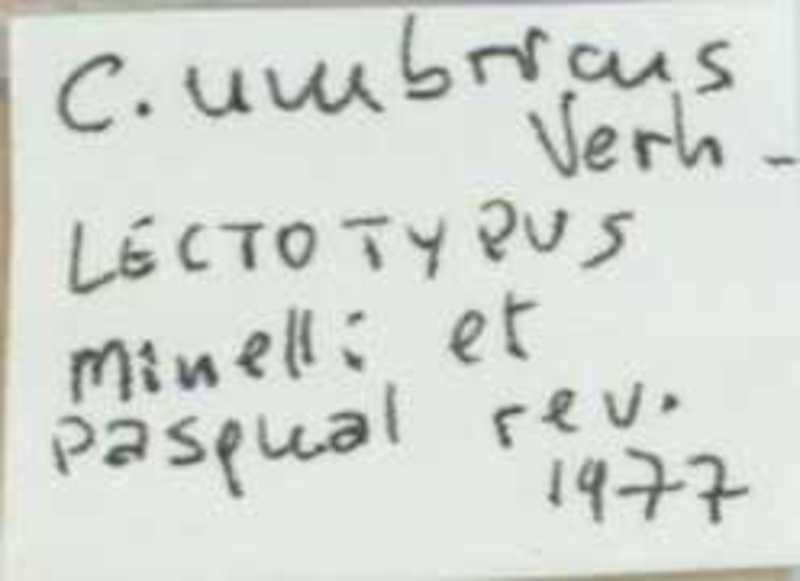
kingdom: Animalia
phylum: Arthropoda
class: Chilopoda
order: Scolopendromorpha
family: Cryptopidae
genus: Cryptops
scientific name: Cryptops umbricus
